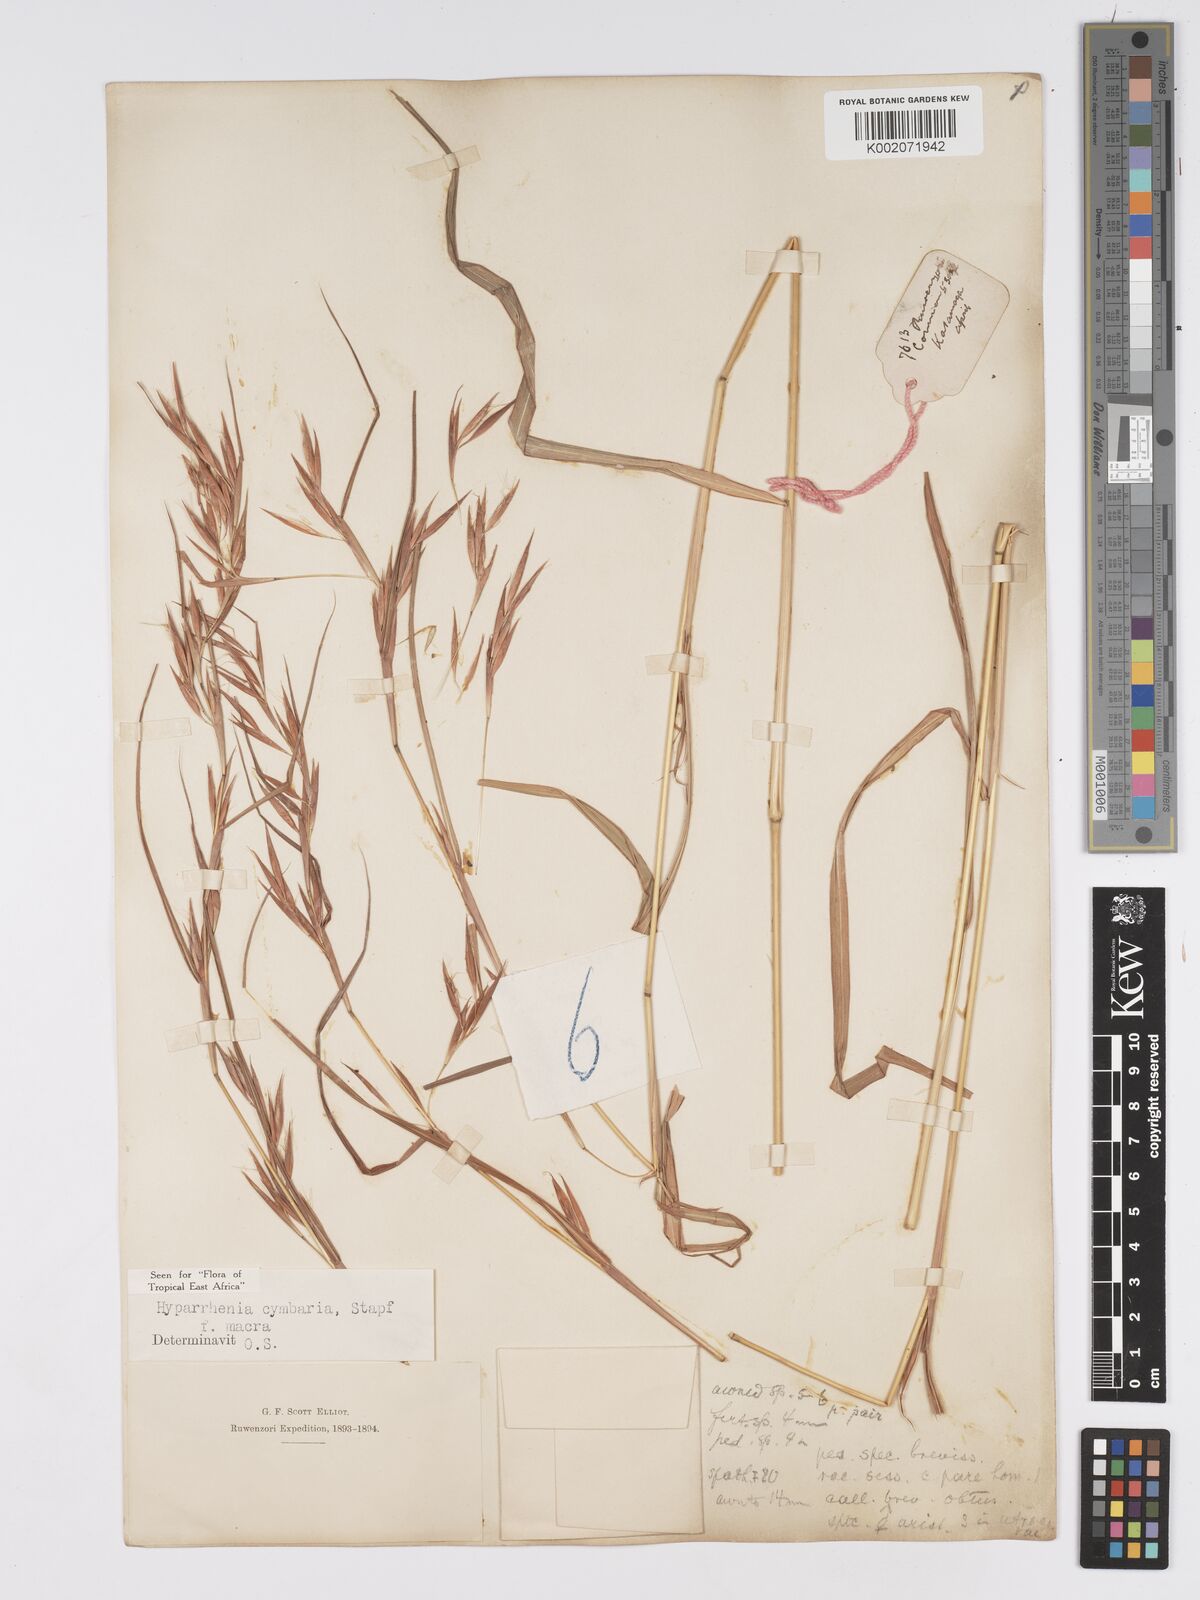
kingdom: Plantae
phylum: Tracheophyta
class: Liliopsida
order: Poales
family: Poaceae
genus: Hyparrhenia
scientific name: Hyparrhenia cymbaria
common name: Boat thatching grass
